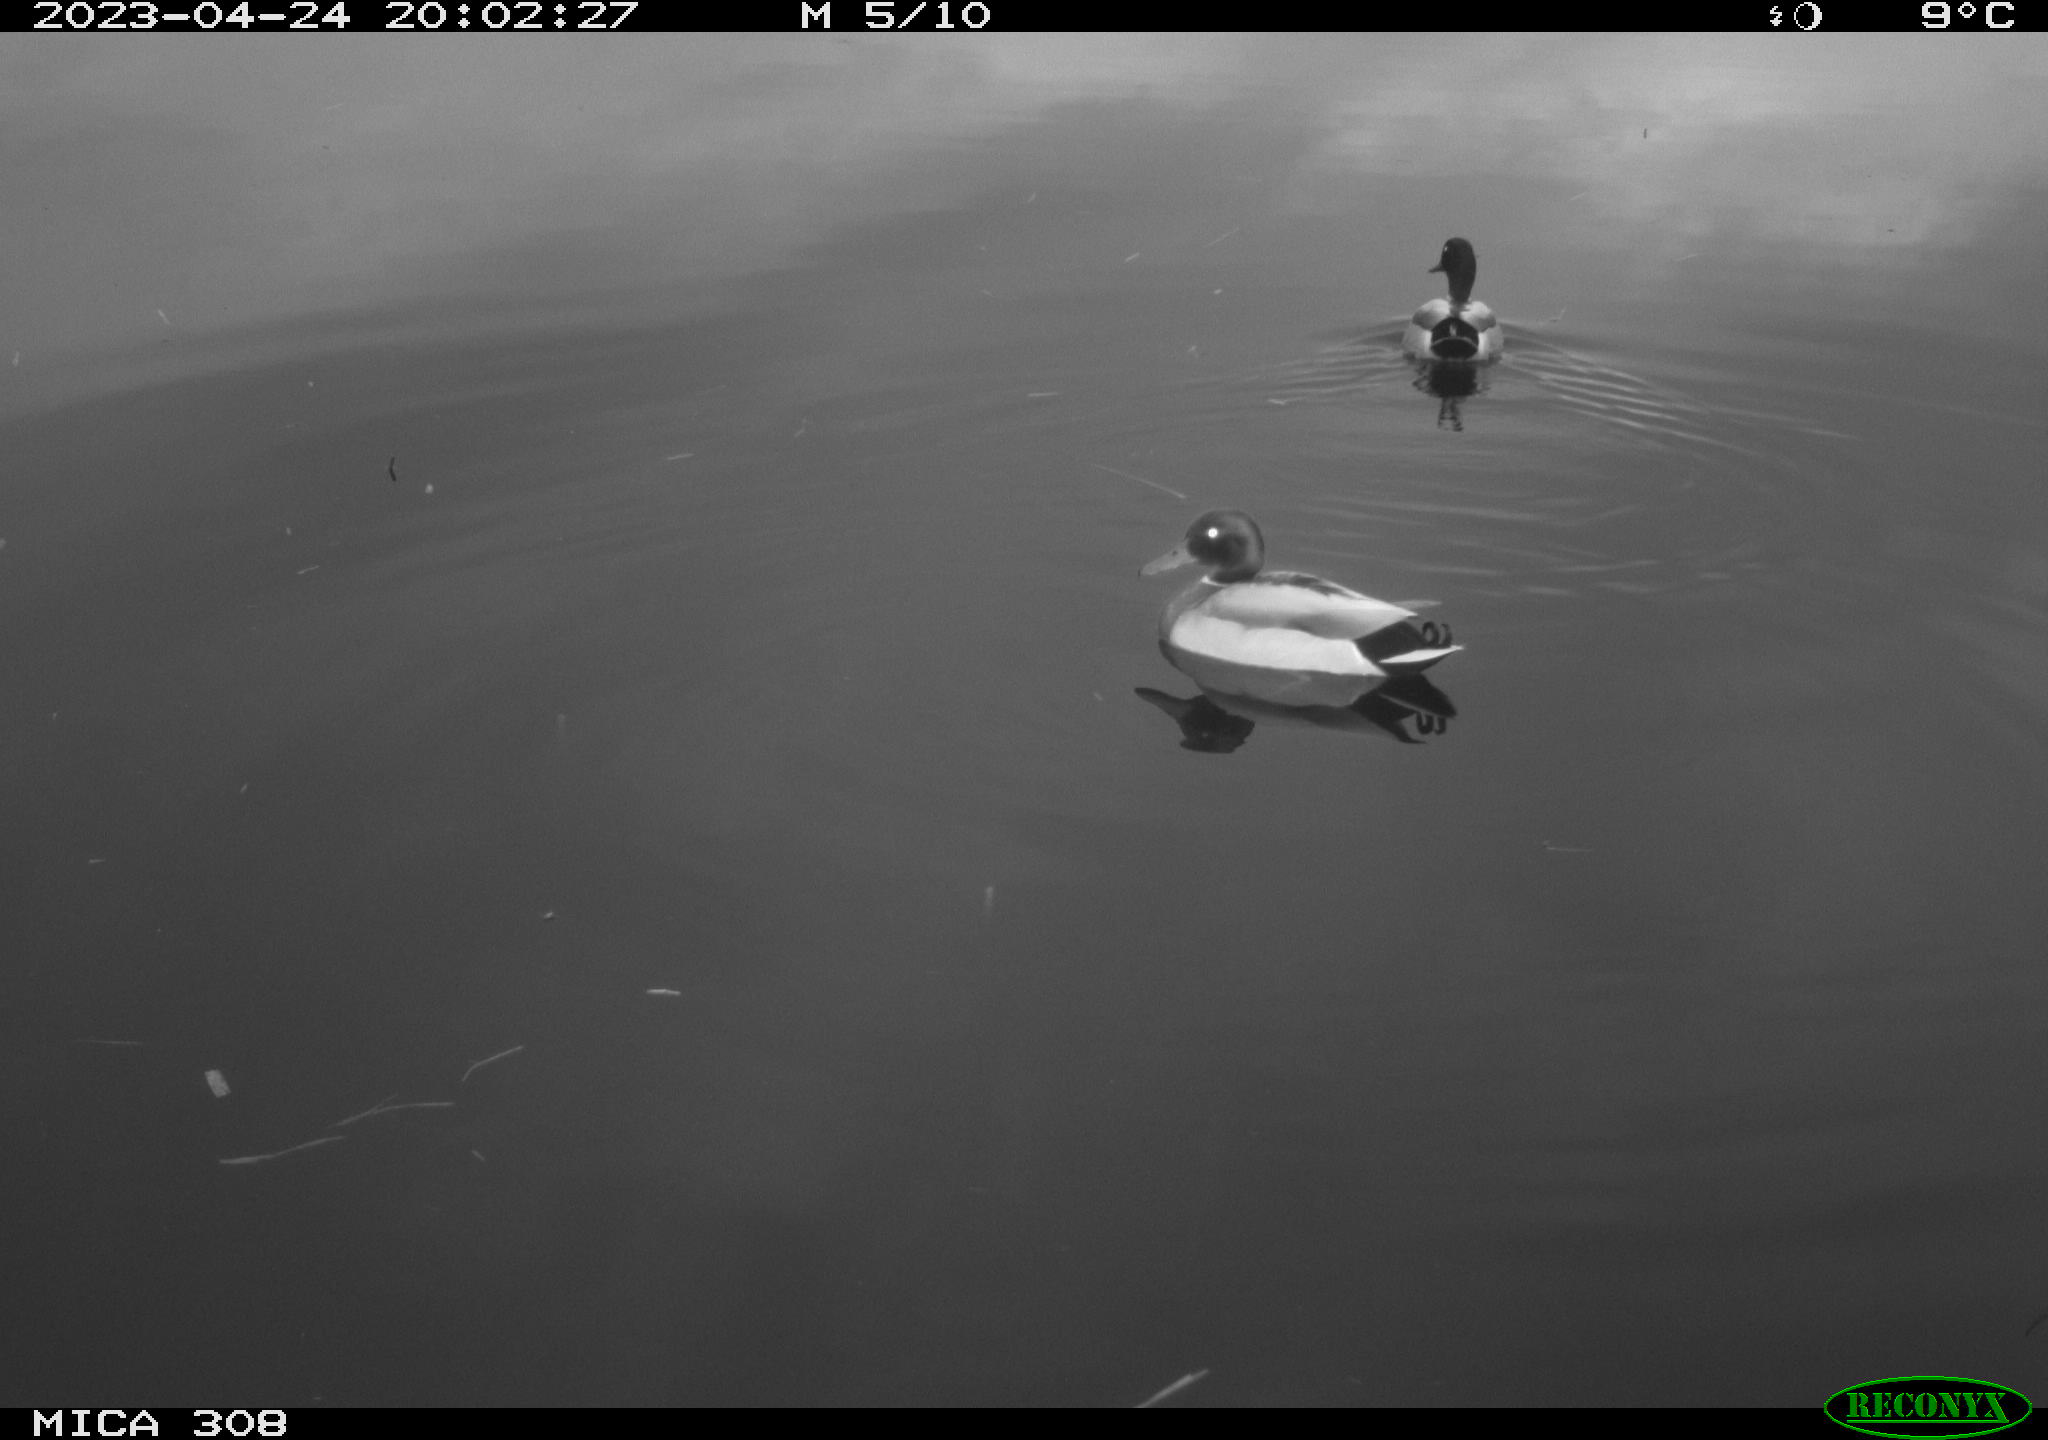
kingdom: Animalia
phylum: Chordata
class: Aves
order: Anseriformes
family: Anatidae
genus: Anas
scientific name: Anas
